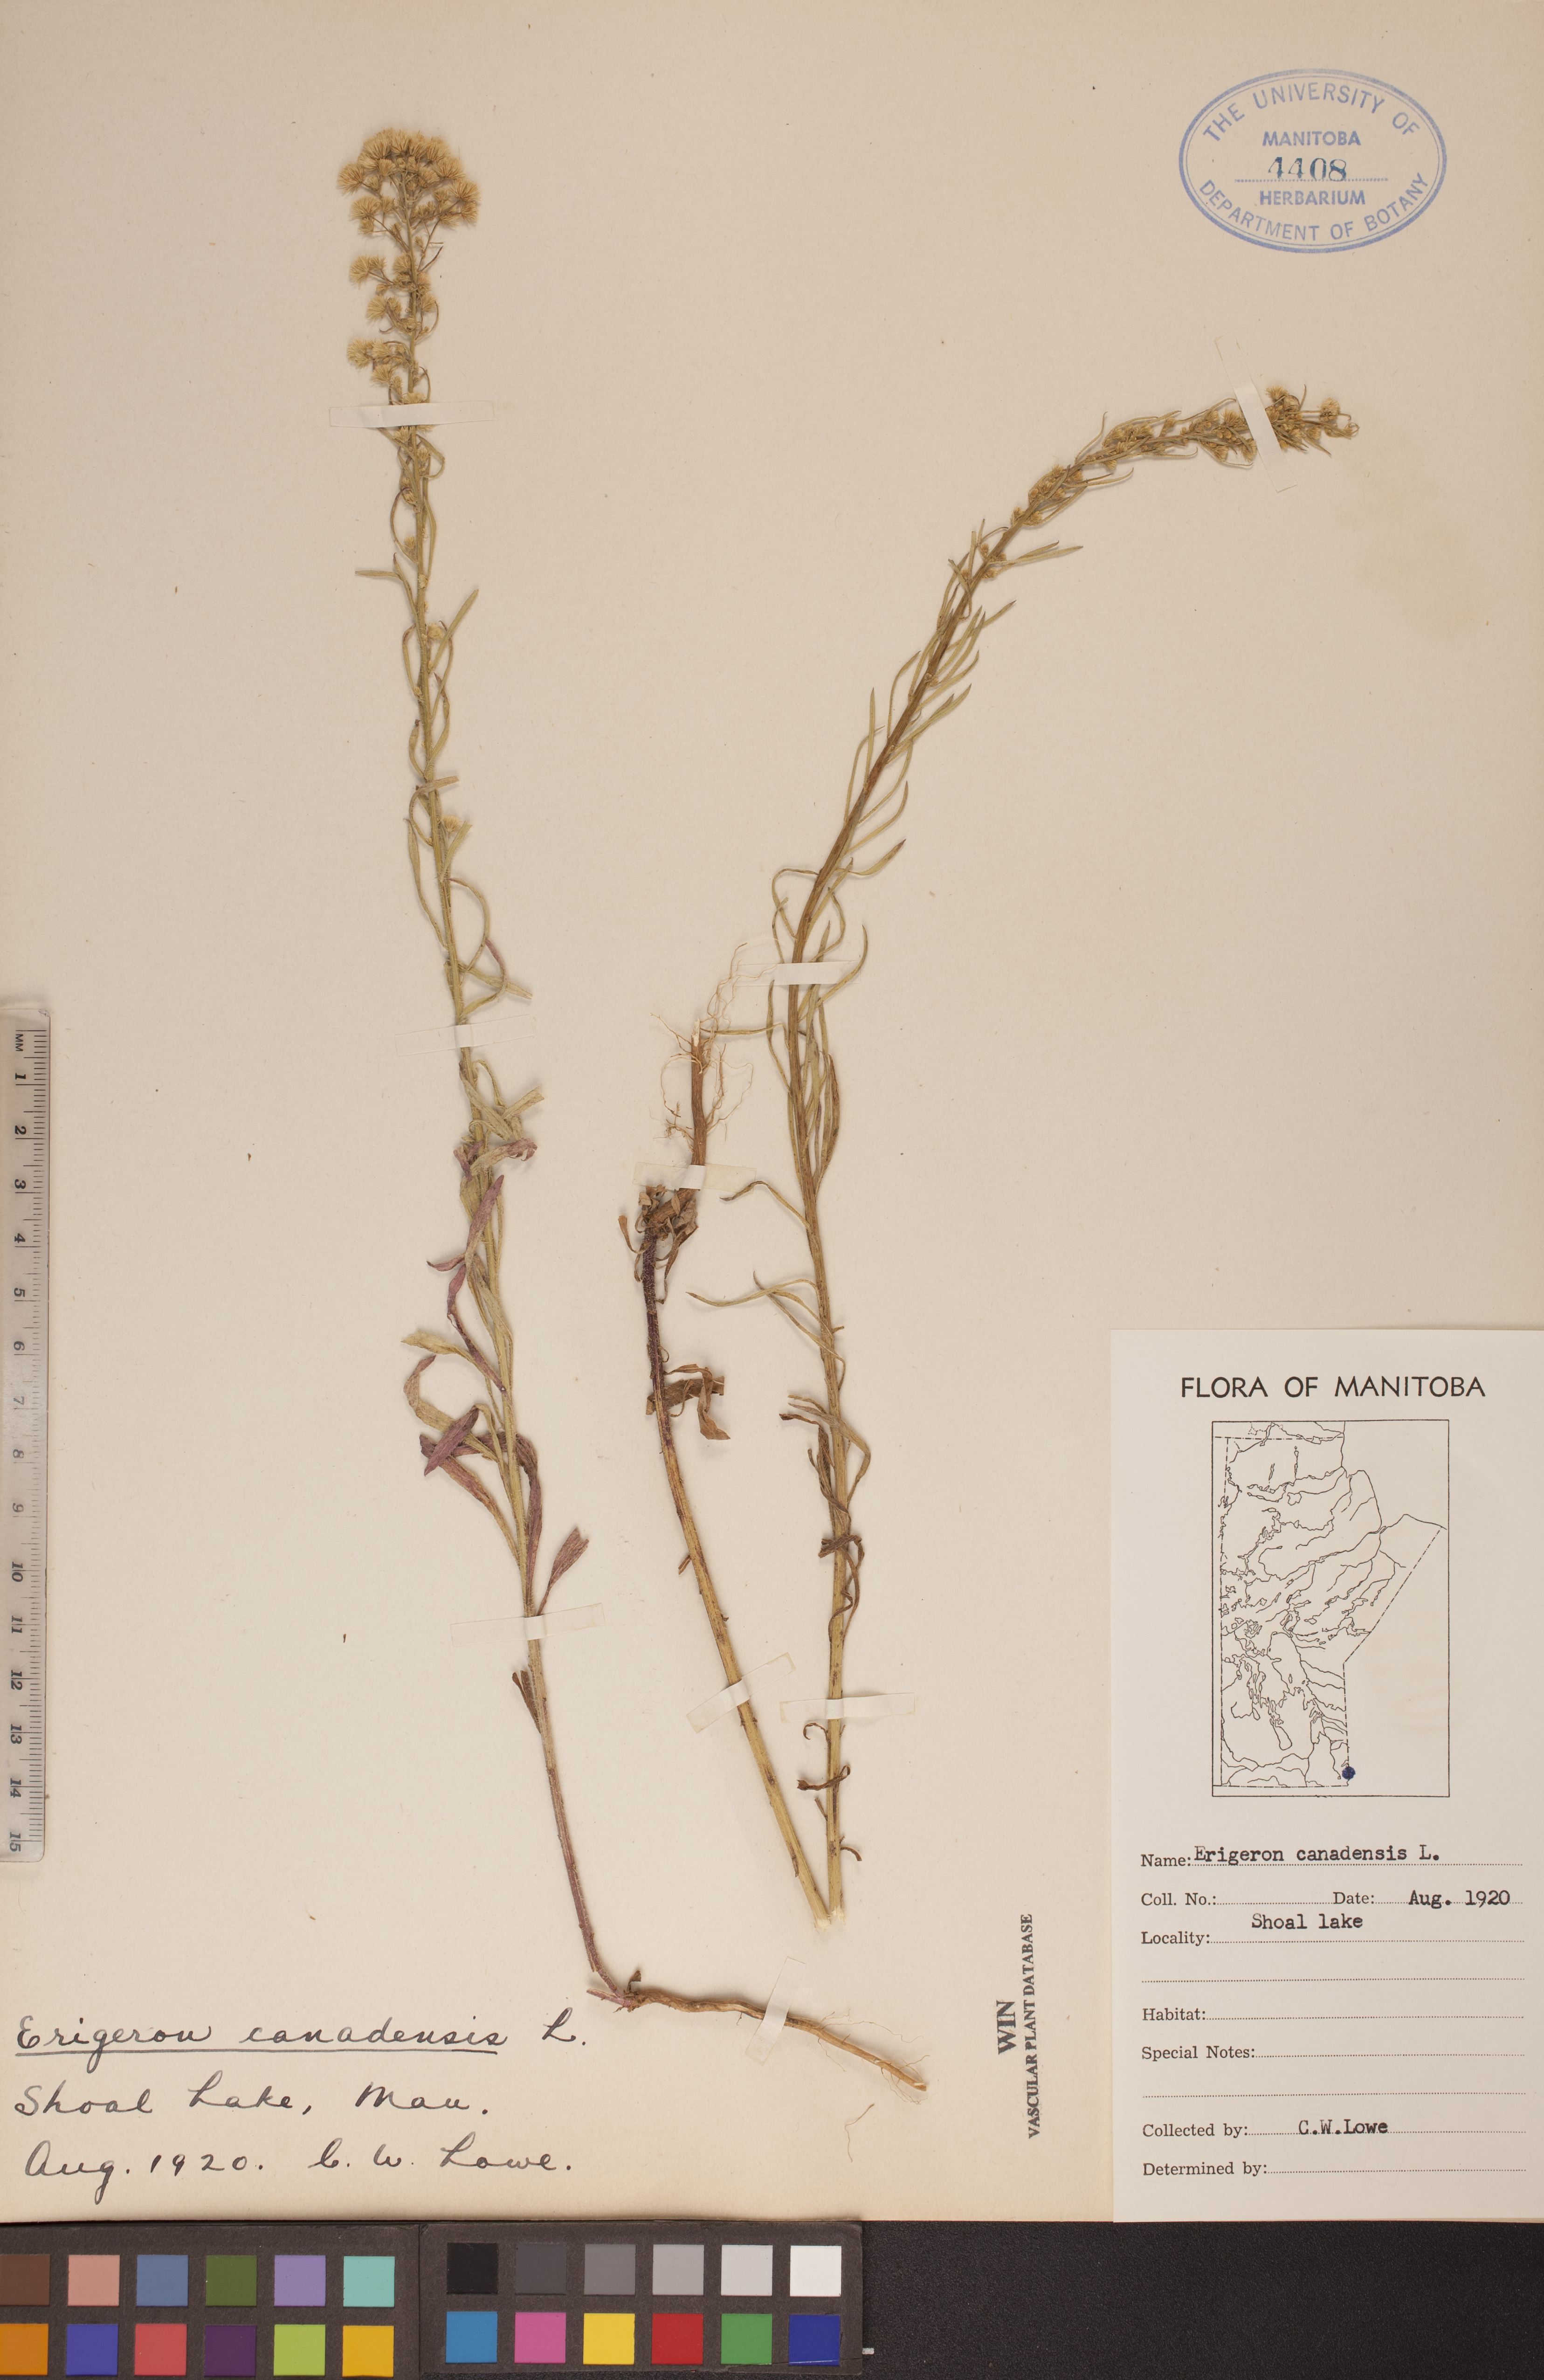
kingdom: Plantae
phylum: Tracheophyta
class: Magnoliopsida
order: Asterales
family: Asteraceae
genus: Erigeron
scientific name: Erigeron canadensis
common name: Canadian fleabane
